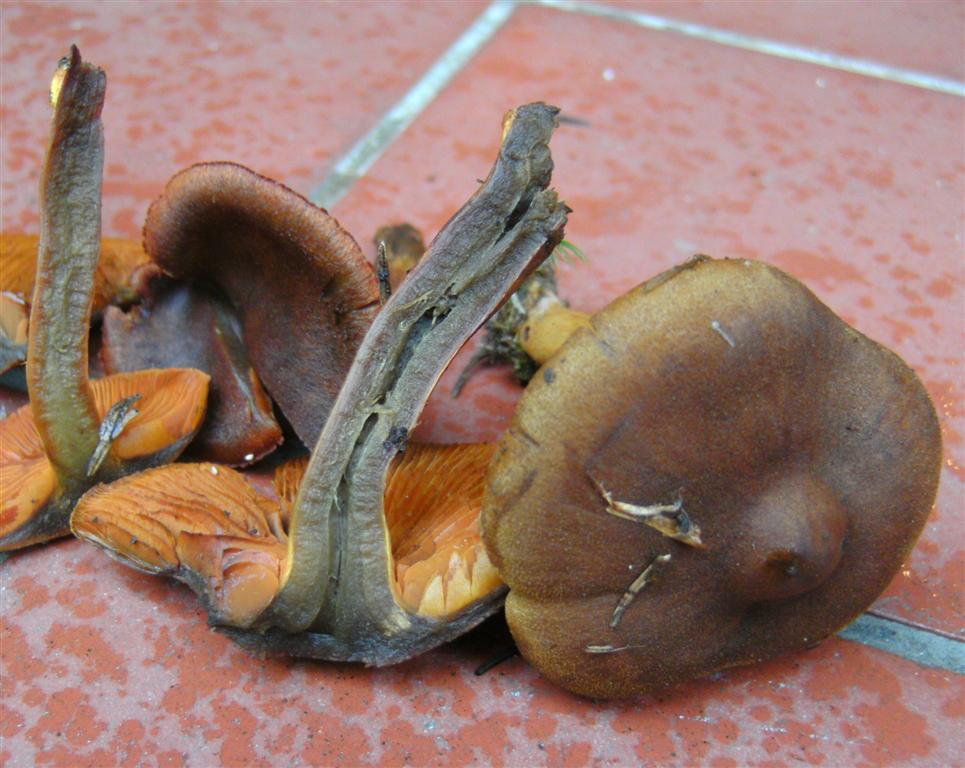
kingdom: Fungi
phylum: Basidiomycota
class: Agaricomycetes
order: Agaricales
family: Cortinariaceae
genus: Cortinarius
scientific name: Cortinarius malicorius
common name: grønkødet slørhat
